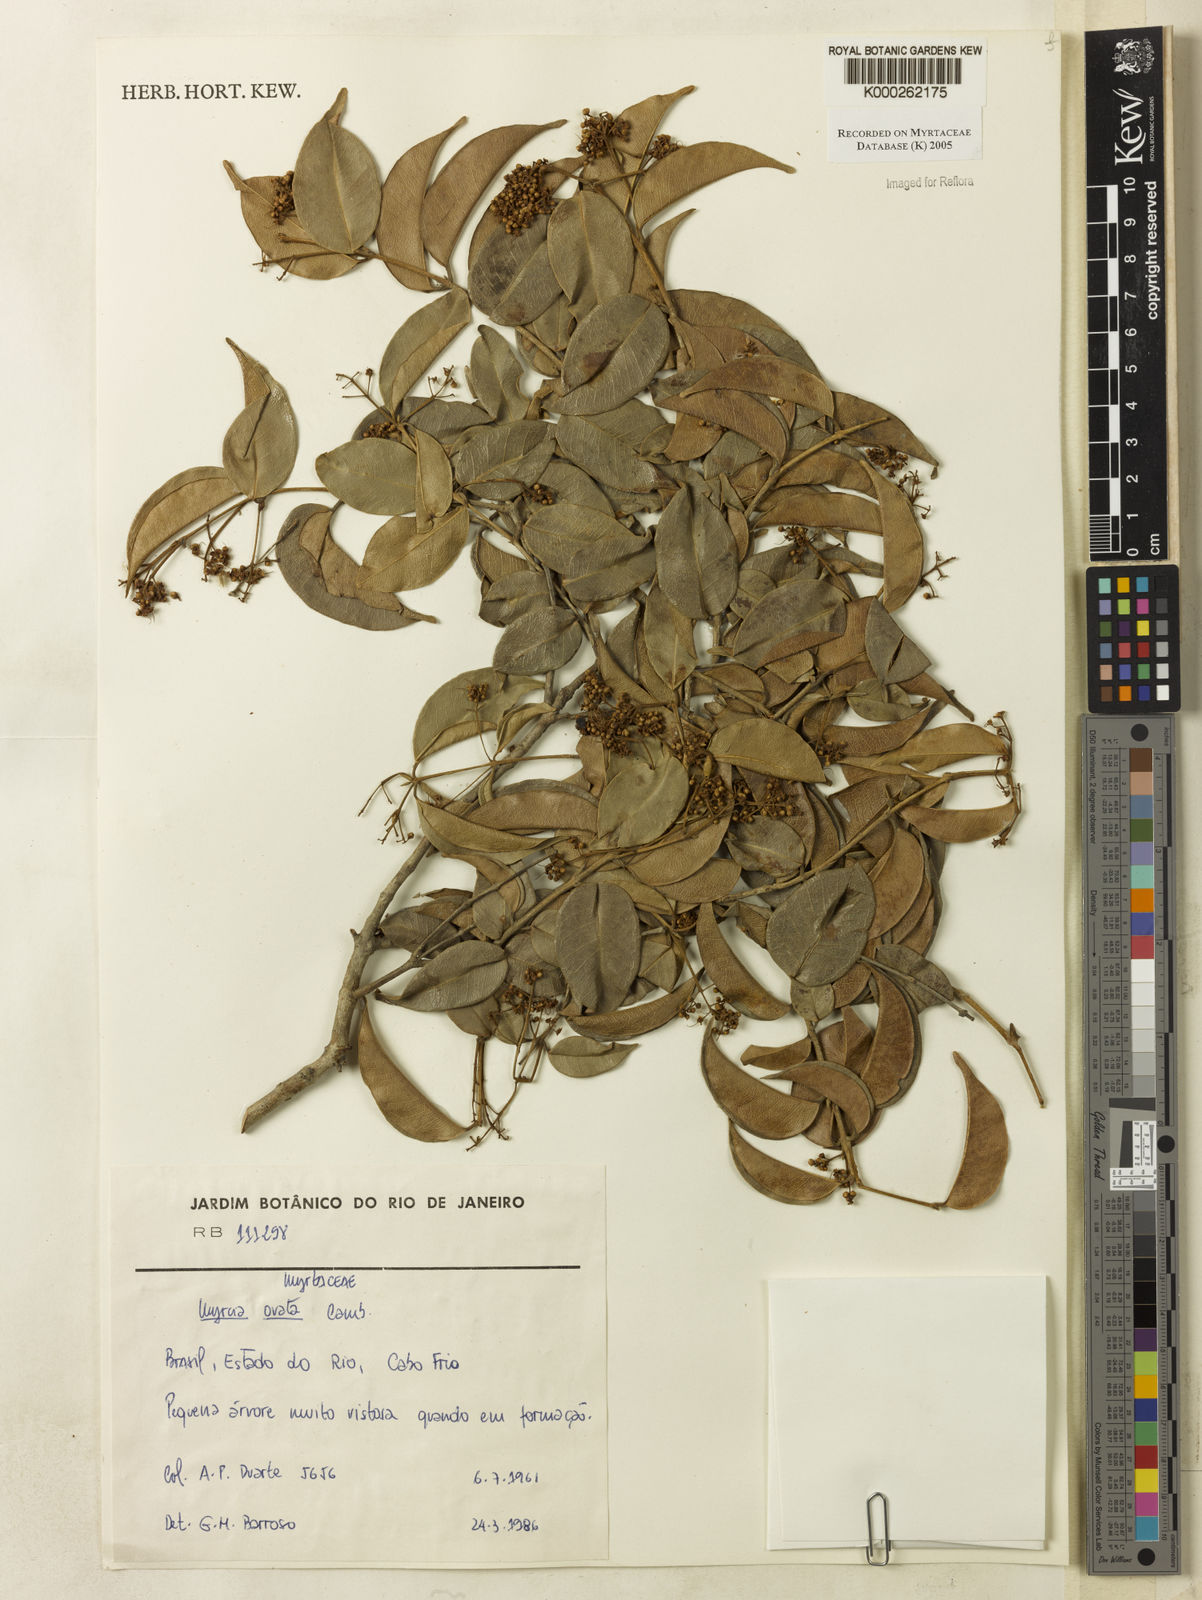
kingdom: Plantae
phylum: Tracheophyta
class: Magnoliopsida
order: Myrtales
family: Myrtaceae
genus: Myrcia
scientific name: Myrcia ovata
